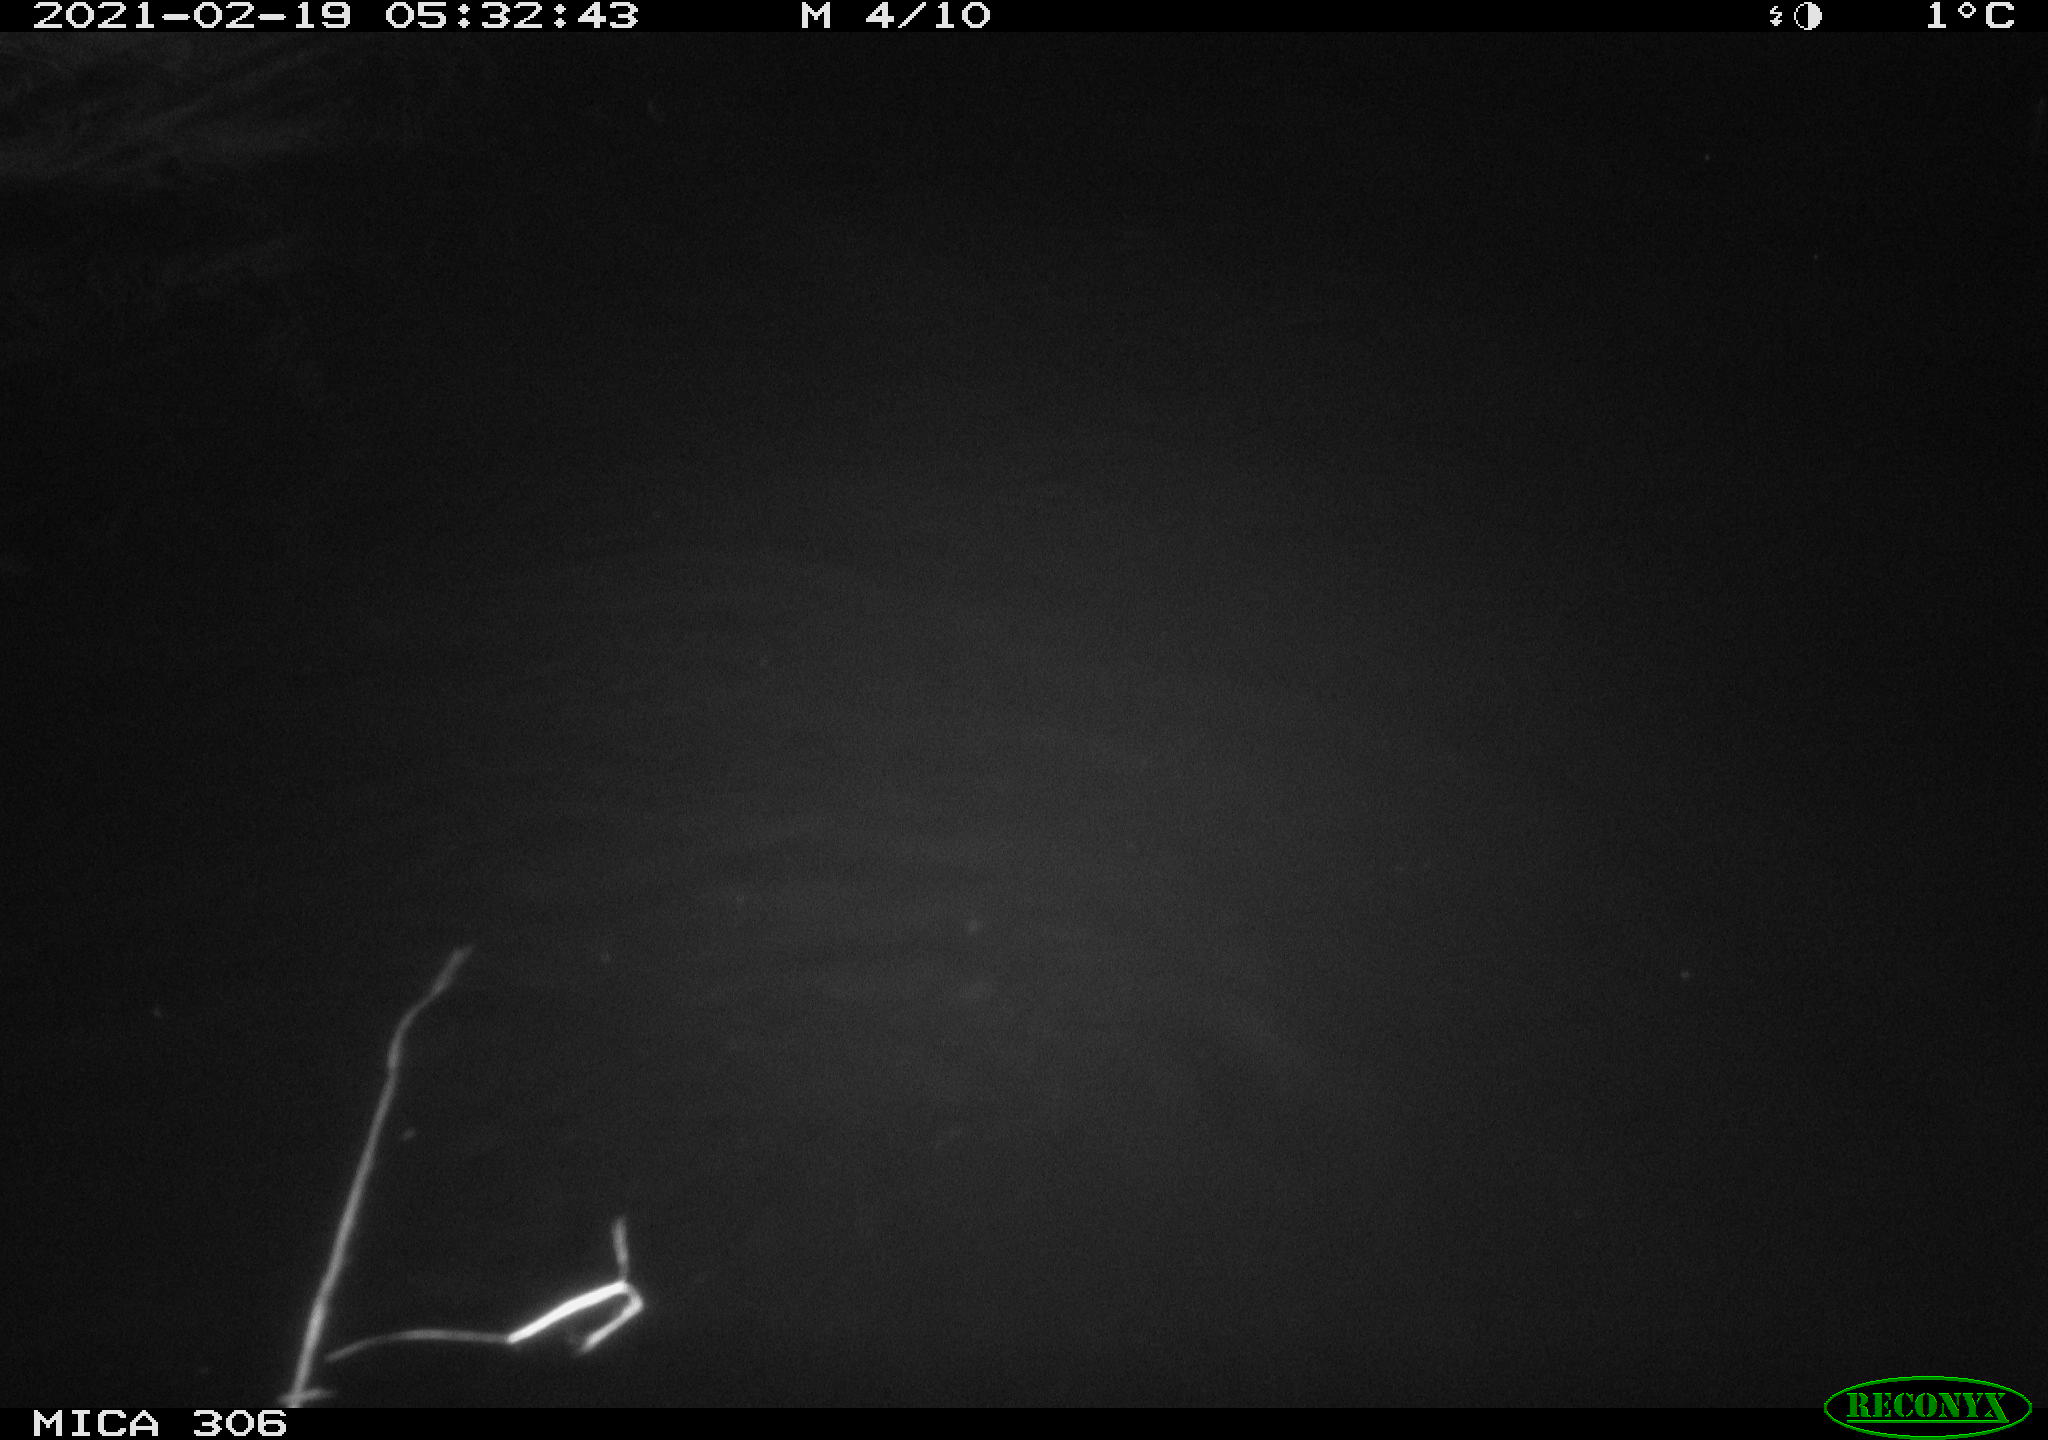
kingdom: Animalia
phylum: Chordata
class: Mammalia
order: Rodentia
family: Cricetidae
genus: Ondatra
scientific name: Ondatra zibethicus
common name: Muskrat
